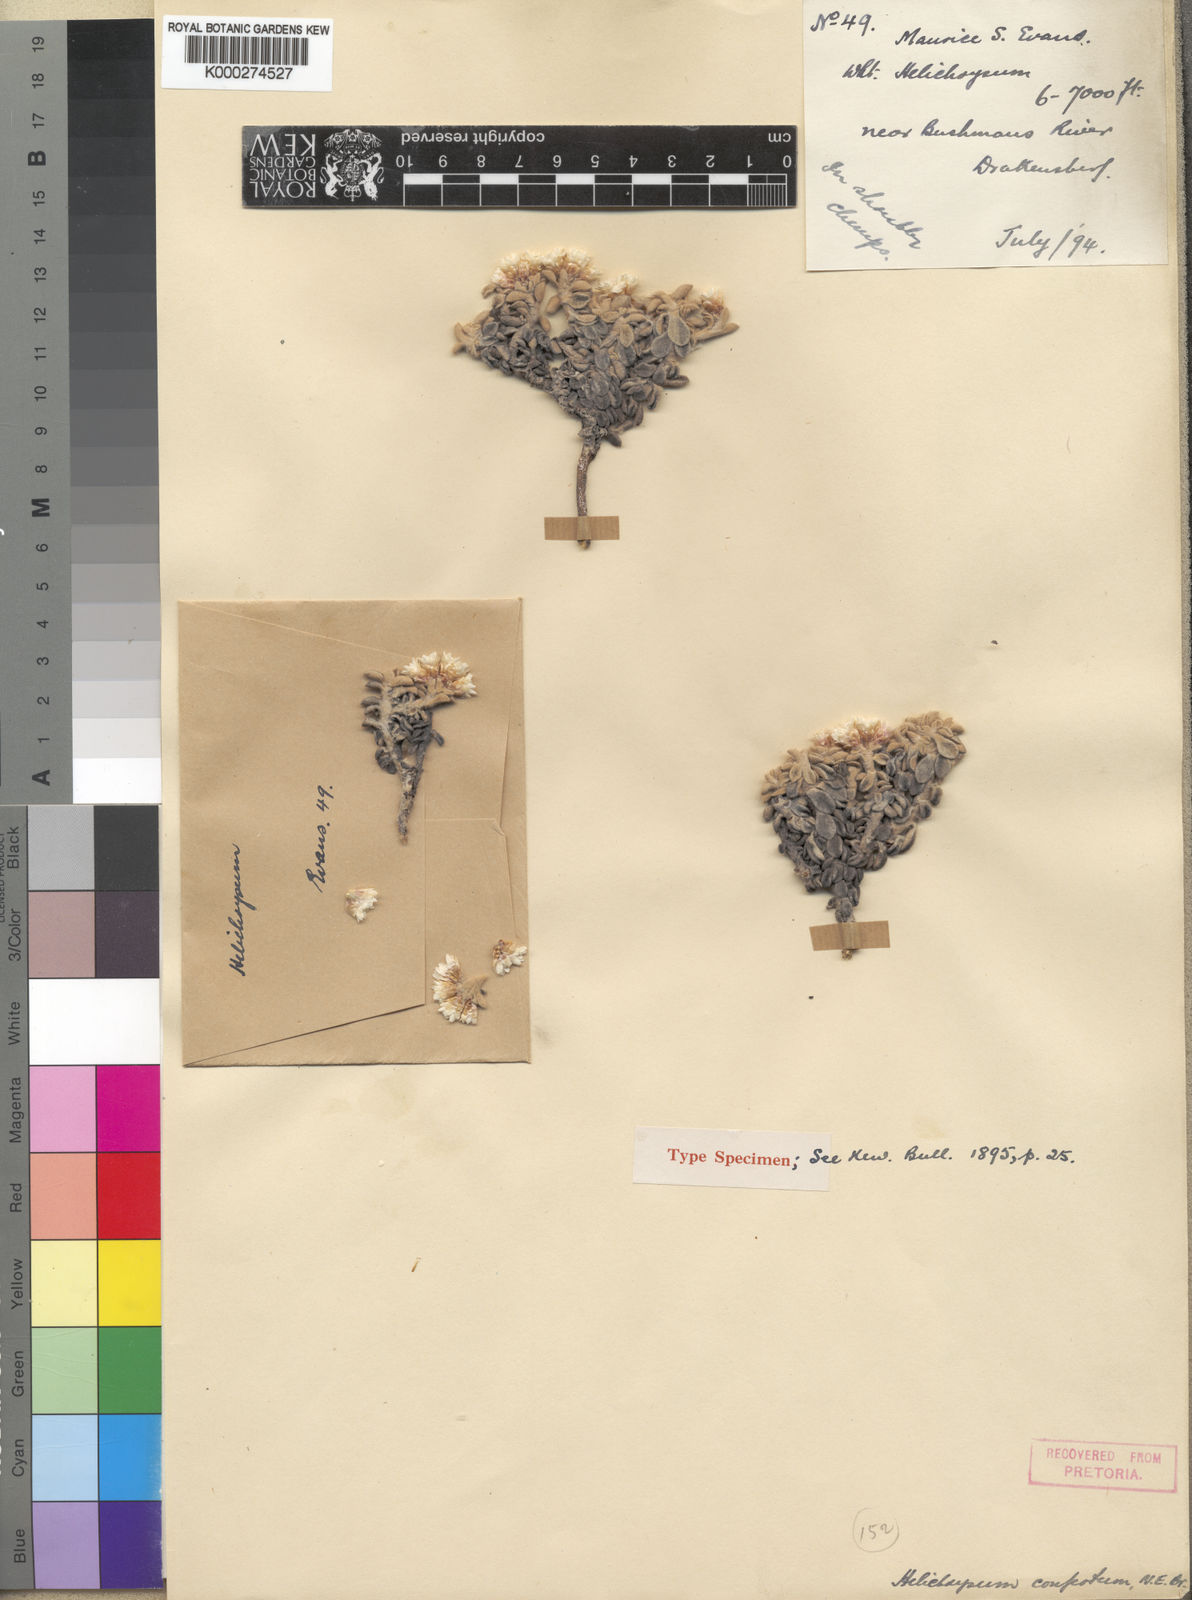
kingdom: Plantae
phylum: Tracheophyta
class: Magnoliopsida
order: Asterales
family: Asteraceae
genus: Helichrysum
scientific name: Helichrysum confertum
